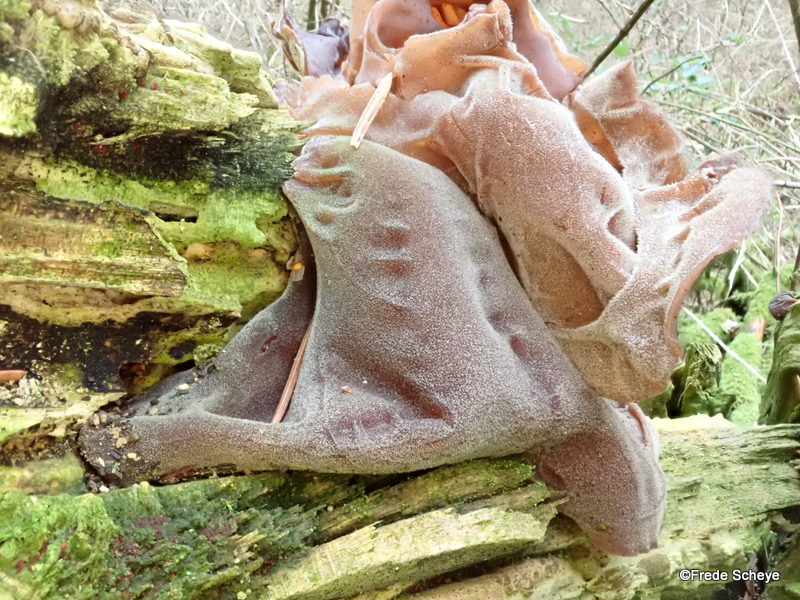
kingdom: Fungi
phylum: Basidiomycota
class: Agaricomycetes
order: Auriculariales
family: Auriculariaceae
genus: Auricularia
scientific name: Auricularia auricula-judae
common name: almindelig judasøre
